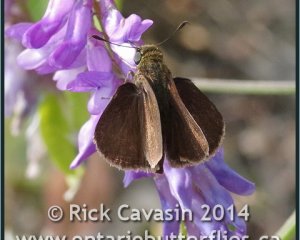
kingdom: Animalia
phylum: Arthropoda
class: Insecta
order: Lepidoptera
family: Hesperiidae
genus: Euphyes
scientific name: Euphyes vestris
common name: Dun Skipper
